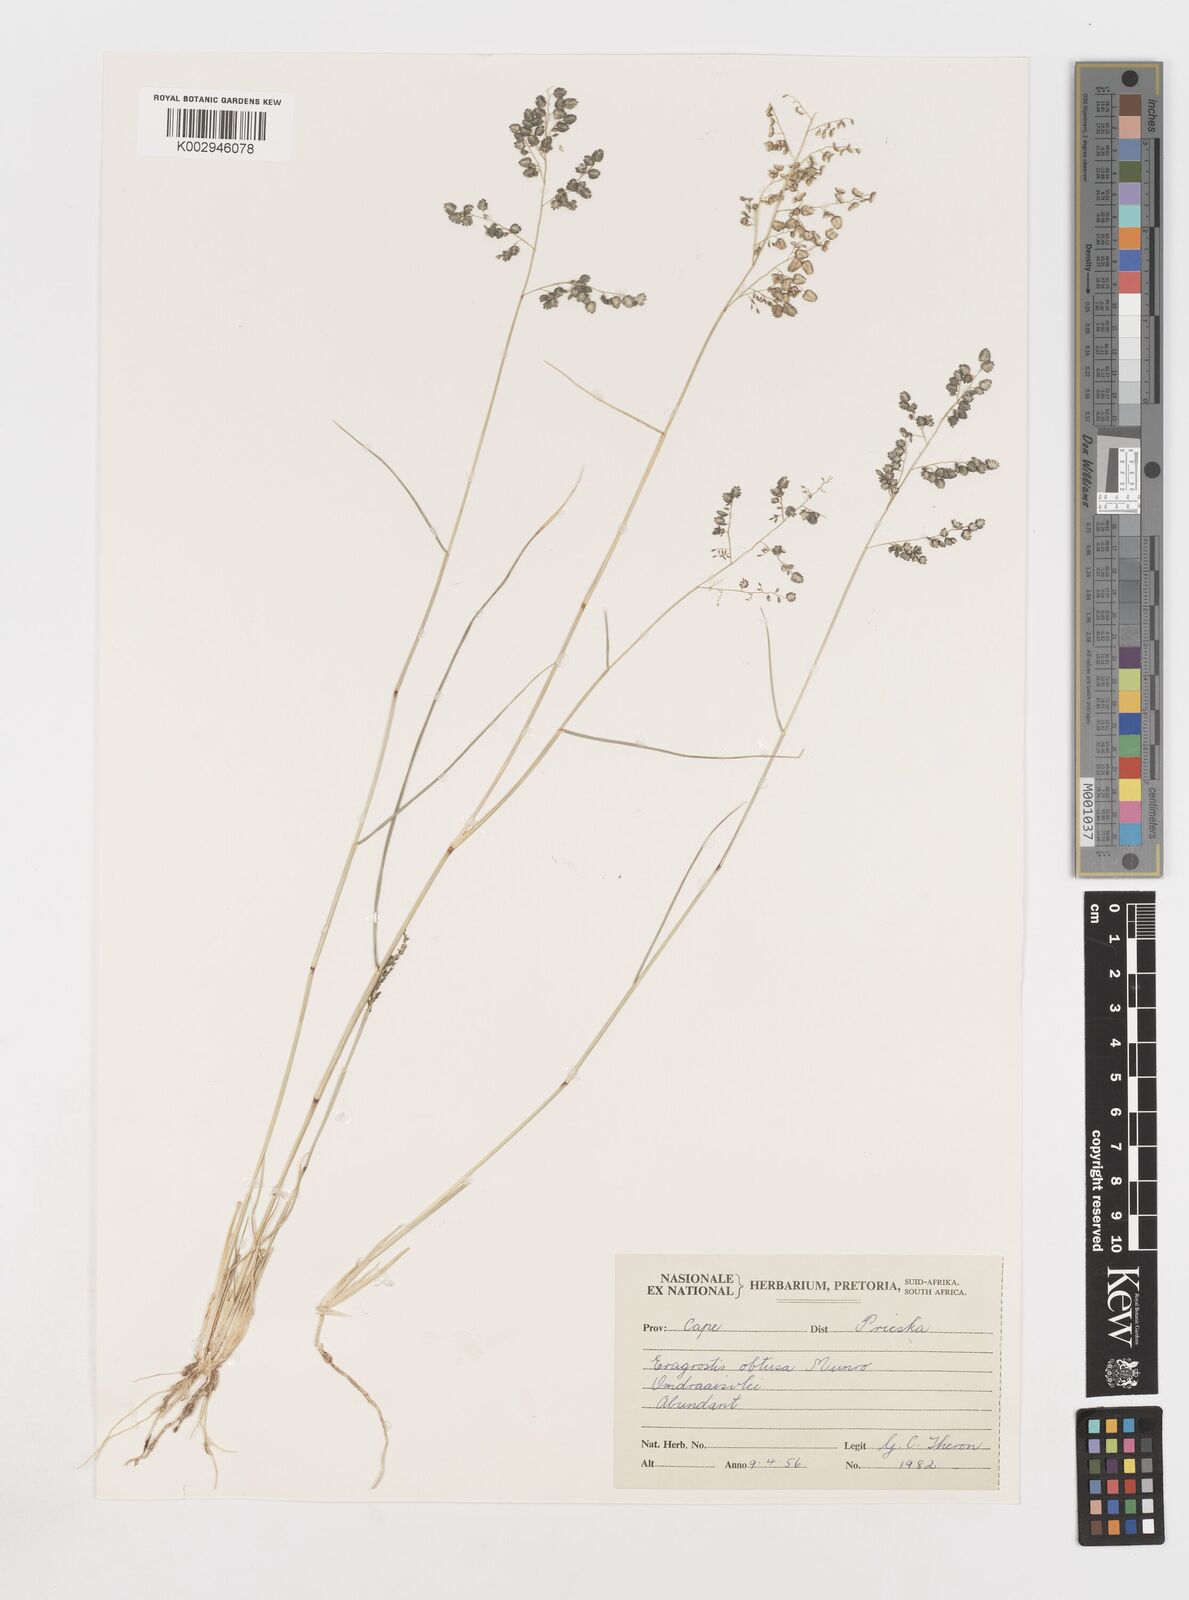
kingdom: Plantae
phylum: Tracheophyta
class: Liliopsida
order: Poales
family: Poaceae
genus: Eragrostis
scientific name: Eragrostis obtusa
